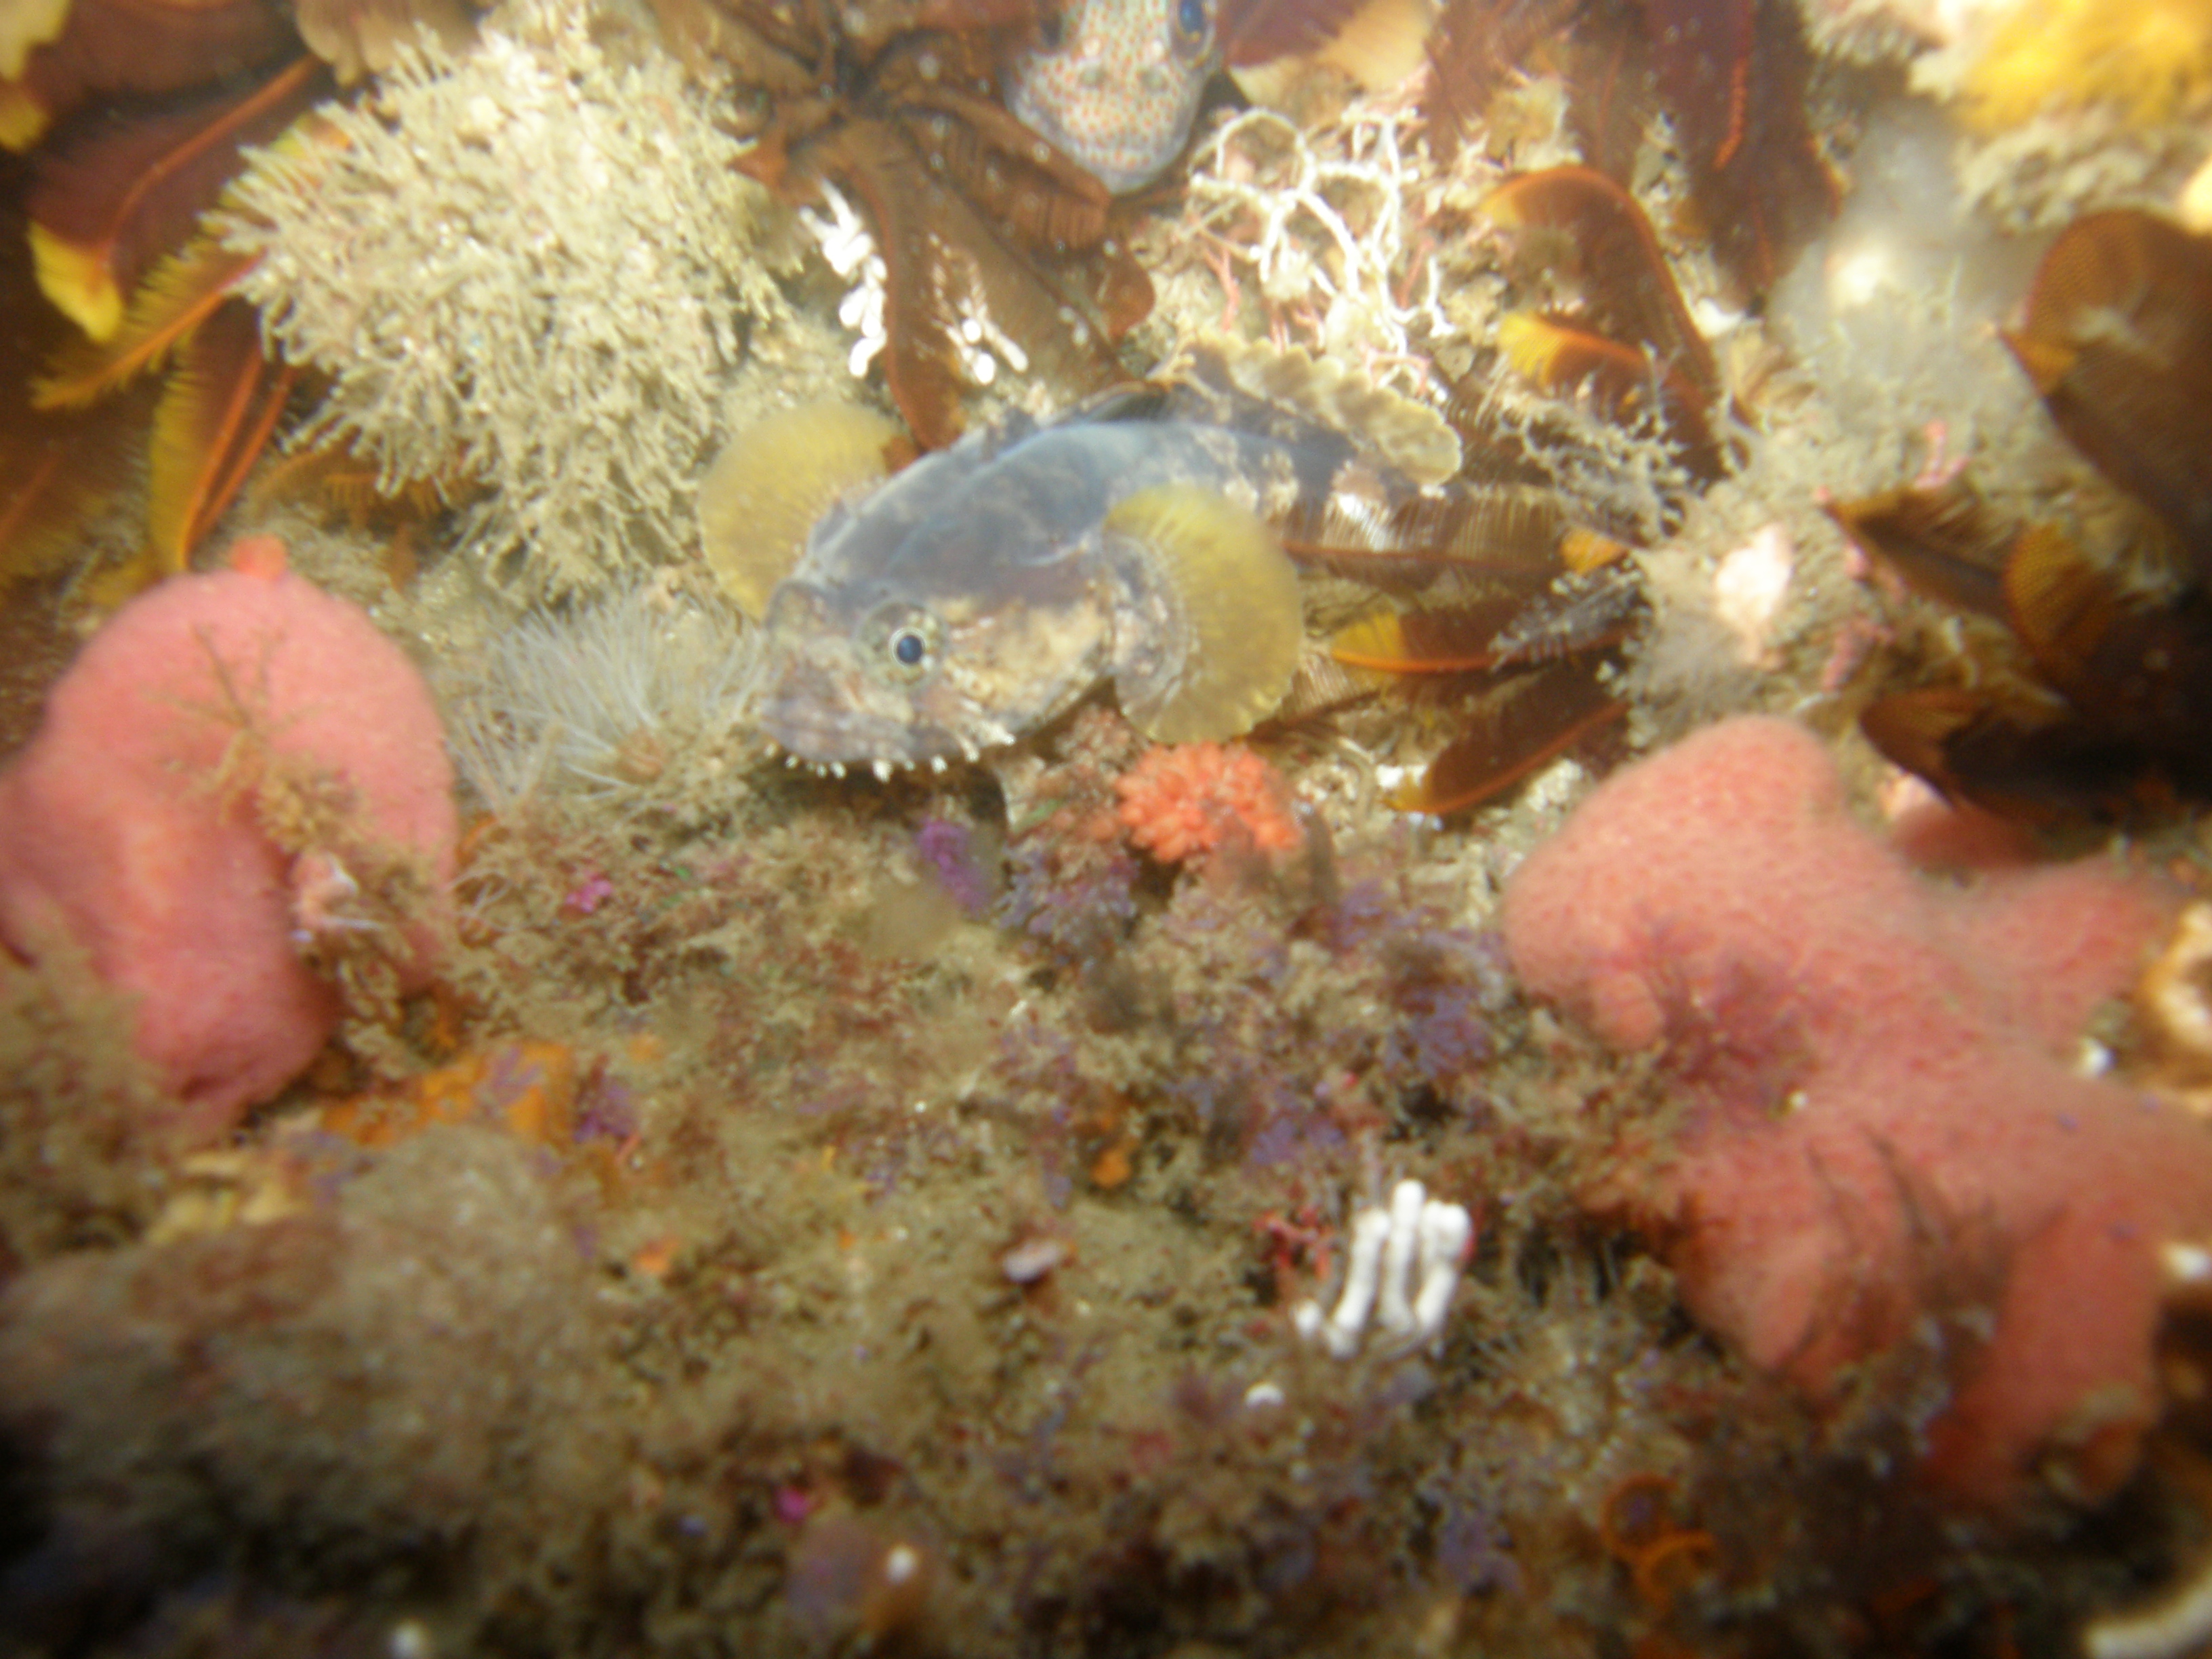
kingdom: Animalia
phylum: Chordata
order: Batrachoidiformes
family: Batrachoididae
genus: Austrobatrachus
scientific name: Austrobatrachus foedus
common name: Puzzled toadfish
